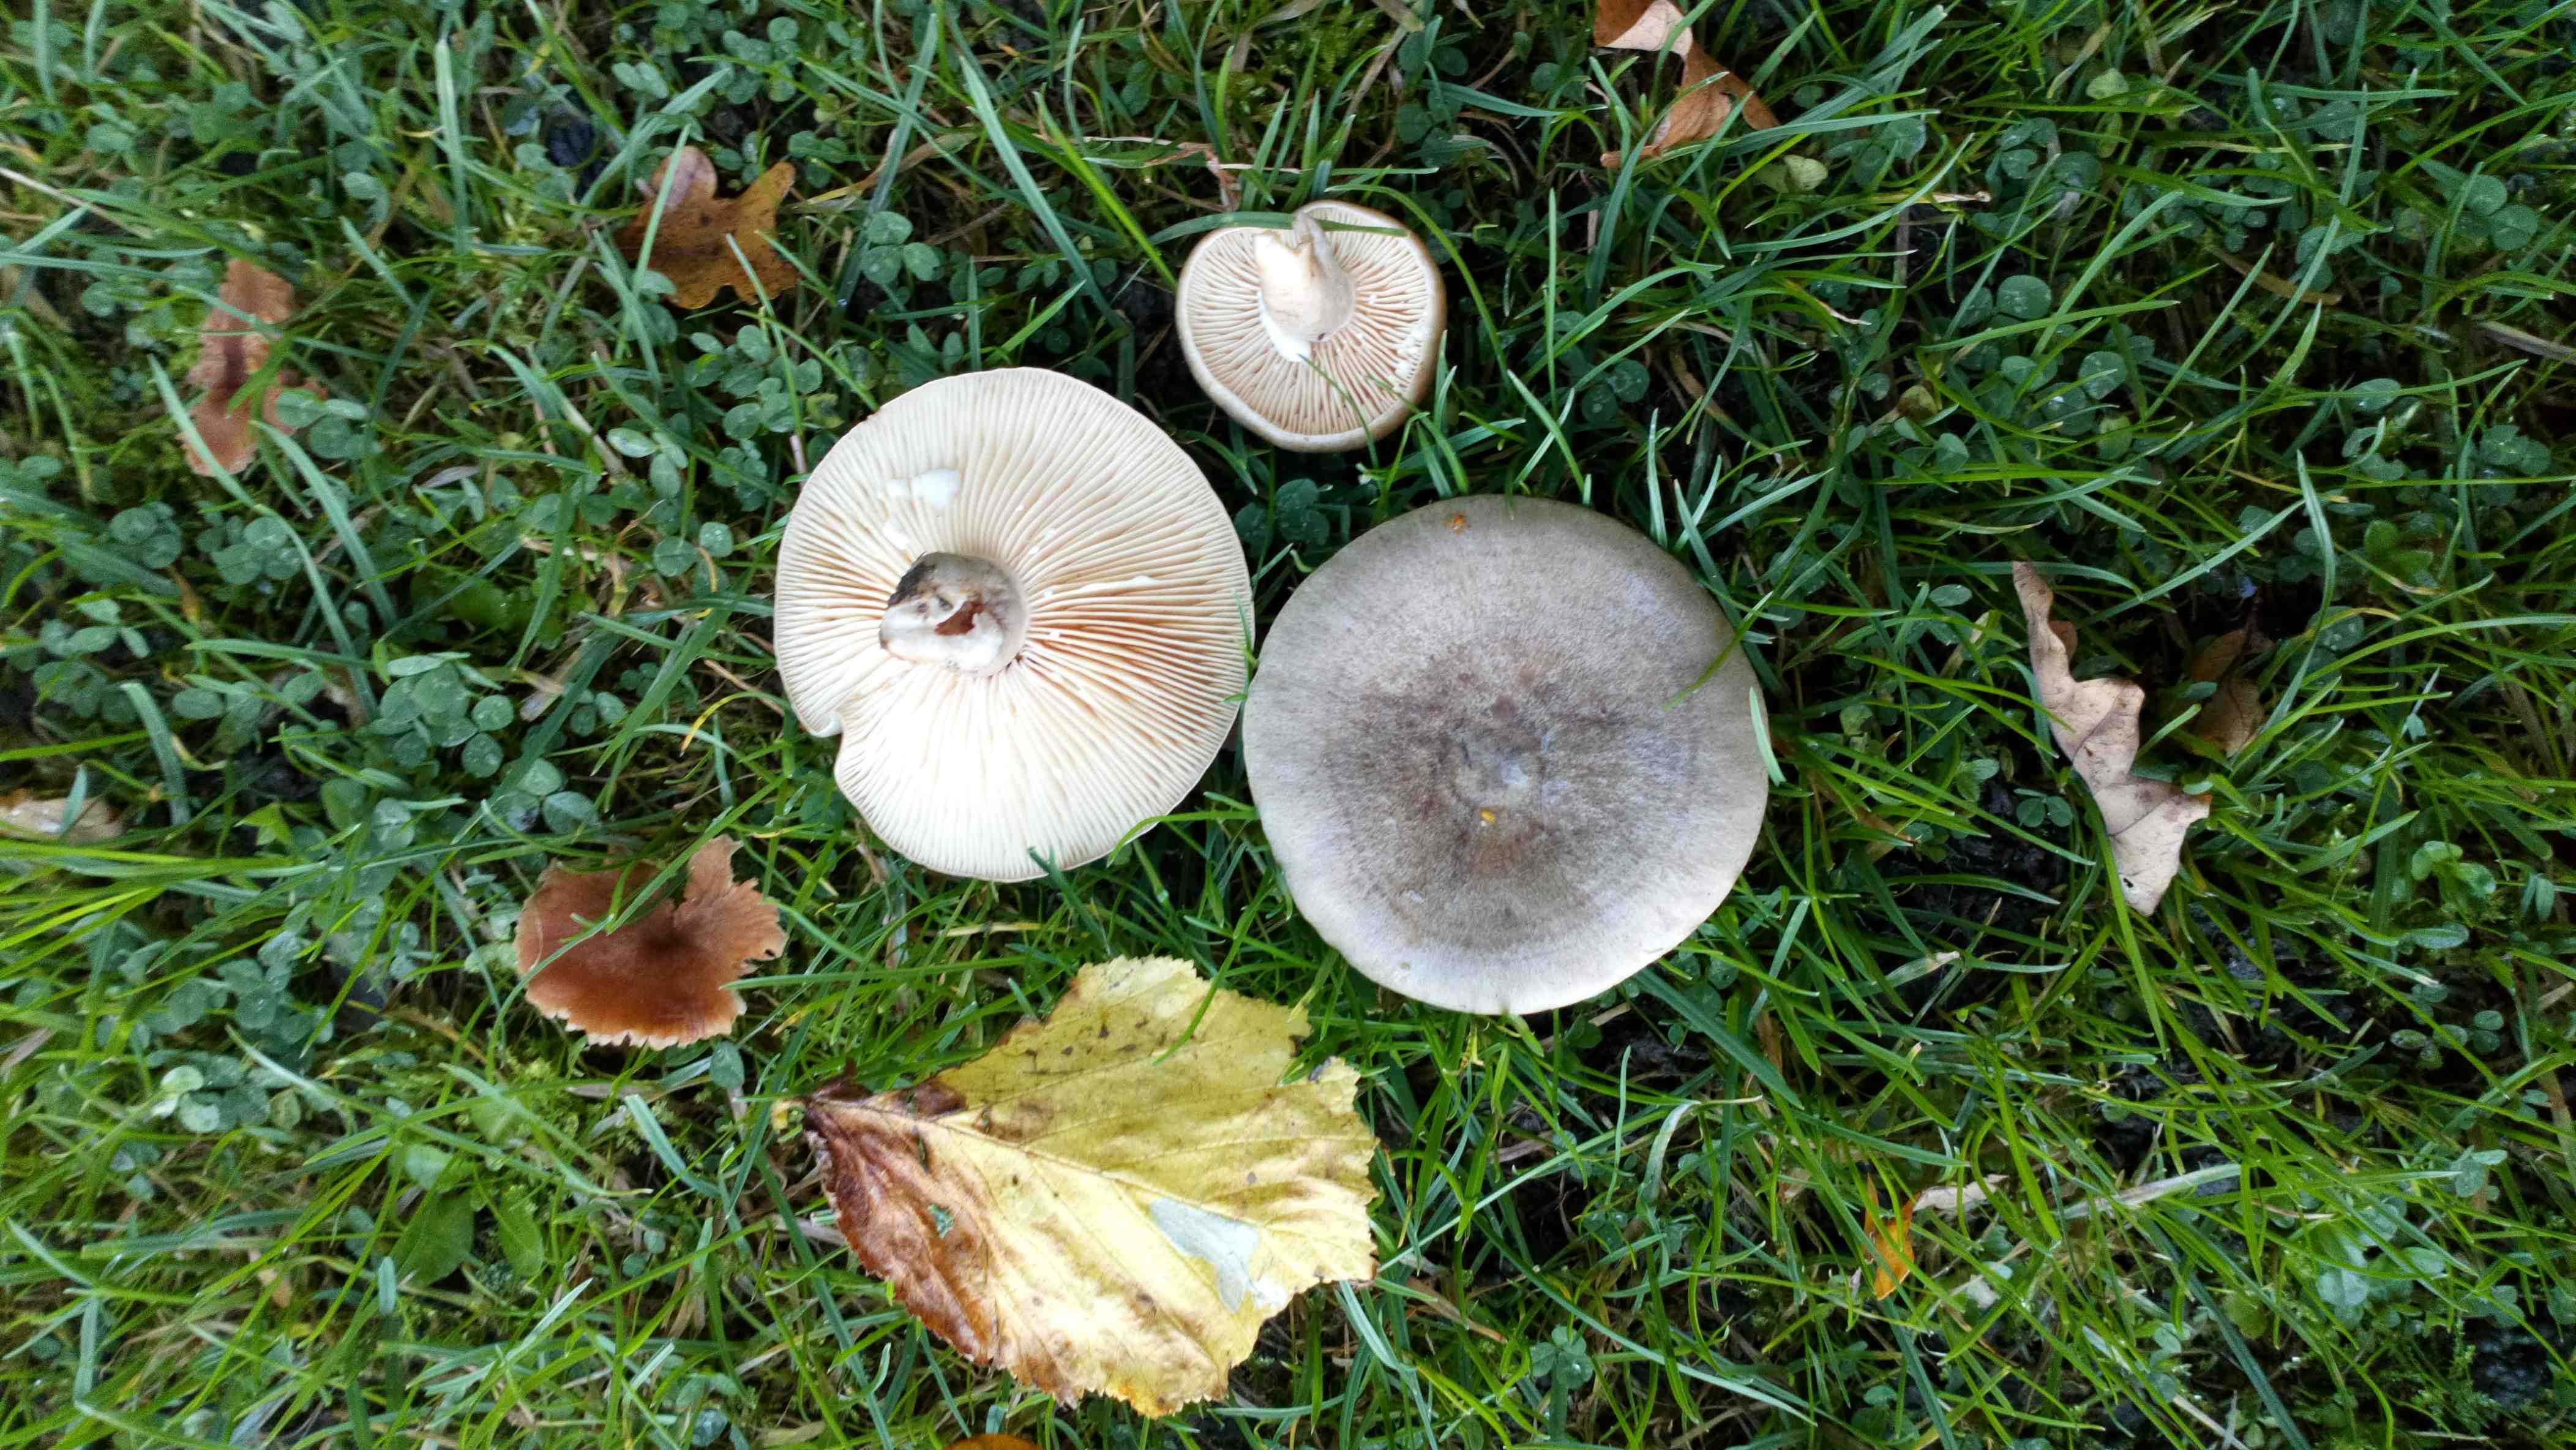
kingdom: Fungi
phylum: Basidiomycota
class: Agaricomycetes
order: Russulales
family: Russulaceae
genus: Lactarius
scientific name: Lactarius pyrogalus
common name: hassel-mælkehat
